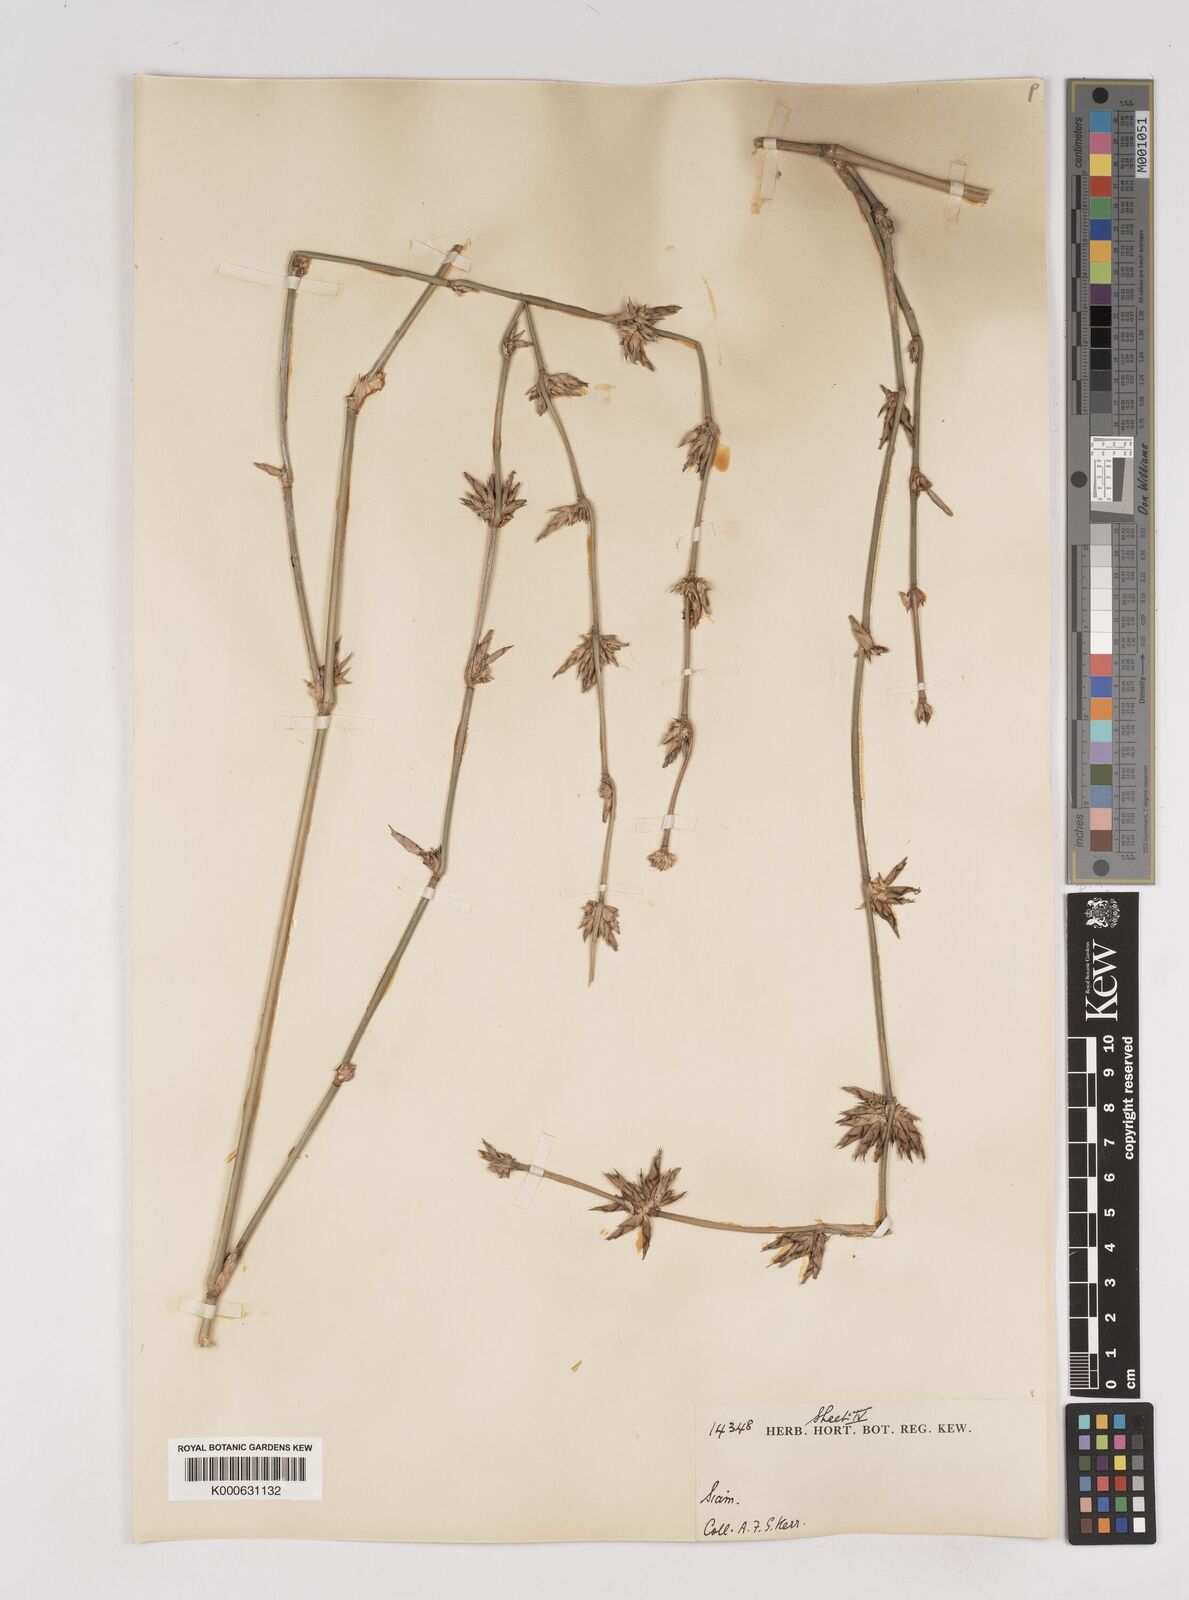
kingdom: Plantae
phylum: Tracheophyta
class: Liliopsida
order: Poales
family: Poaceae
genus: Gigantochloa
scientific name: Gigantochloa
